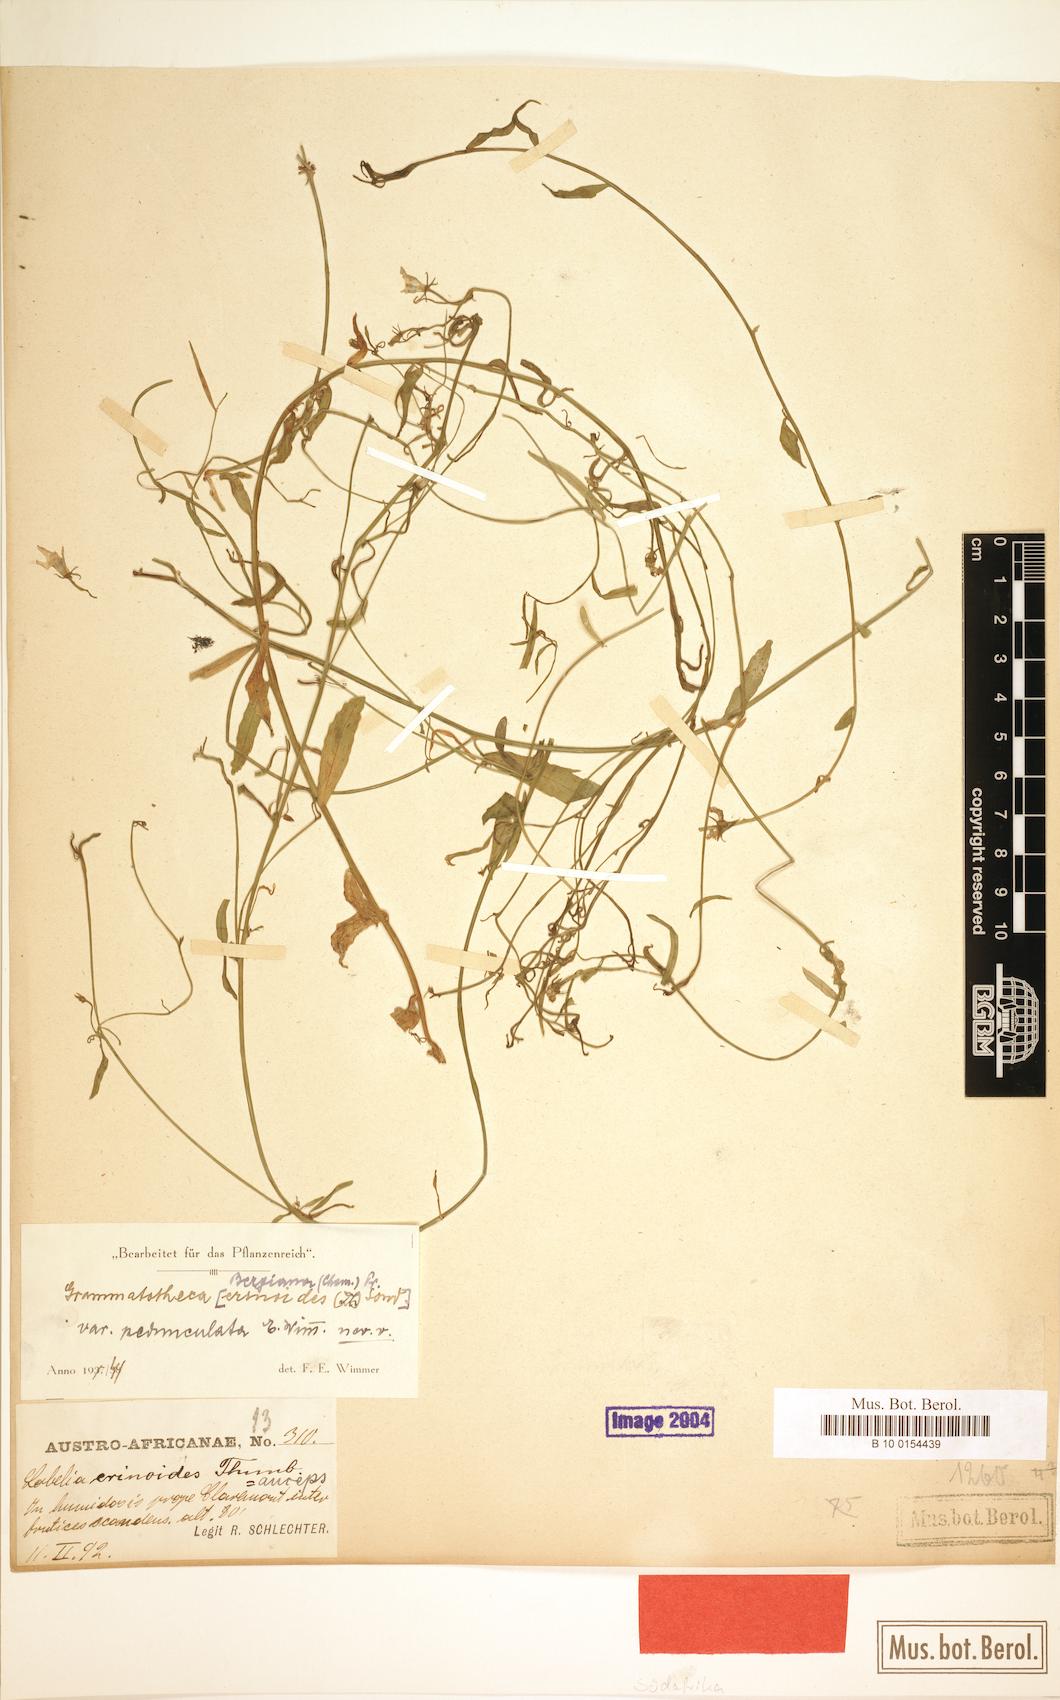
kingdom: Plantae
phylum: Tracheophyta
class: Magnoliopsida
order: Asterales
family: Campanulaceae
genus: Grammatotheca
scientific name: Grammatotheca bergiana
